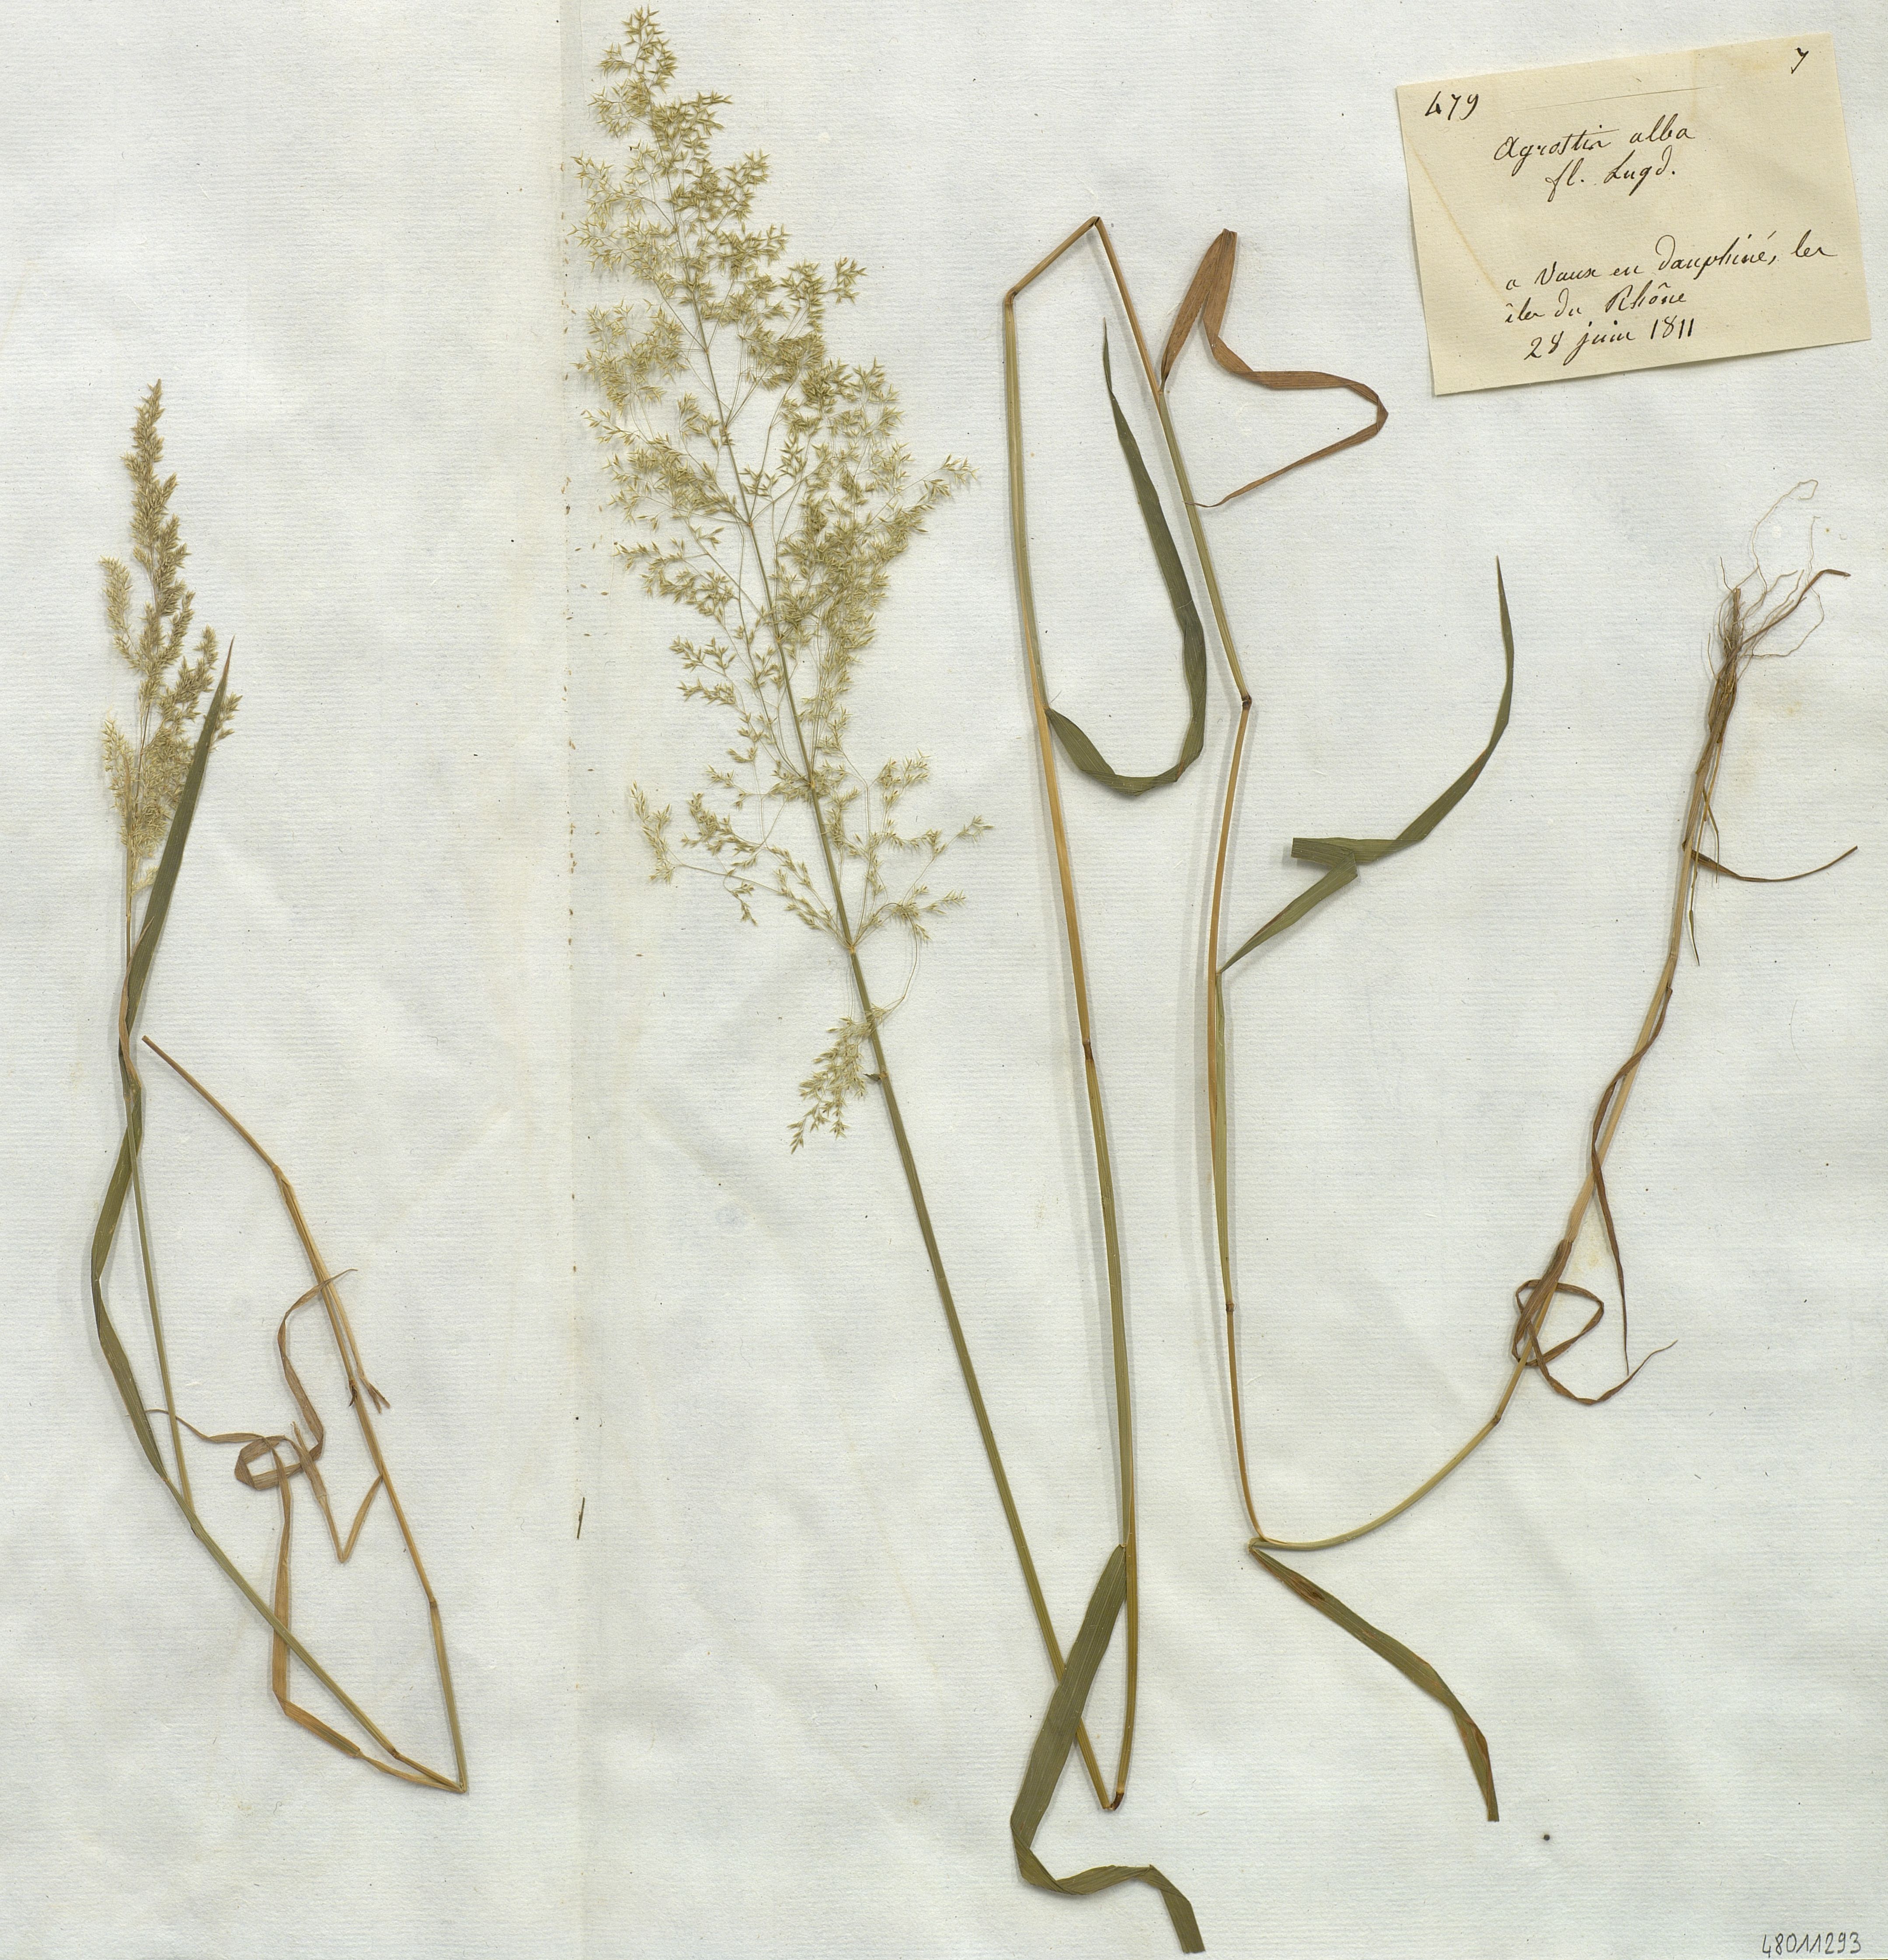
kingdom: Plantae
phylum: Tracheophyta
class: Liliopsida
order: Poales
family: Poaceae
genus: Agrostis
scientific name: Agrostis alba
